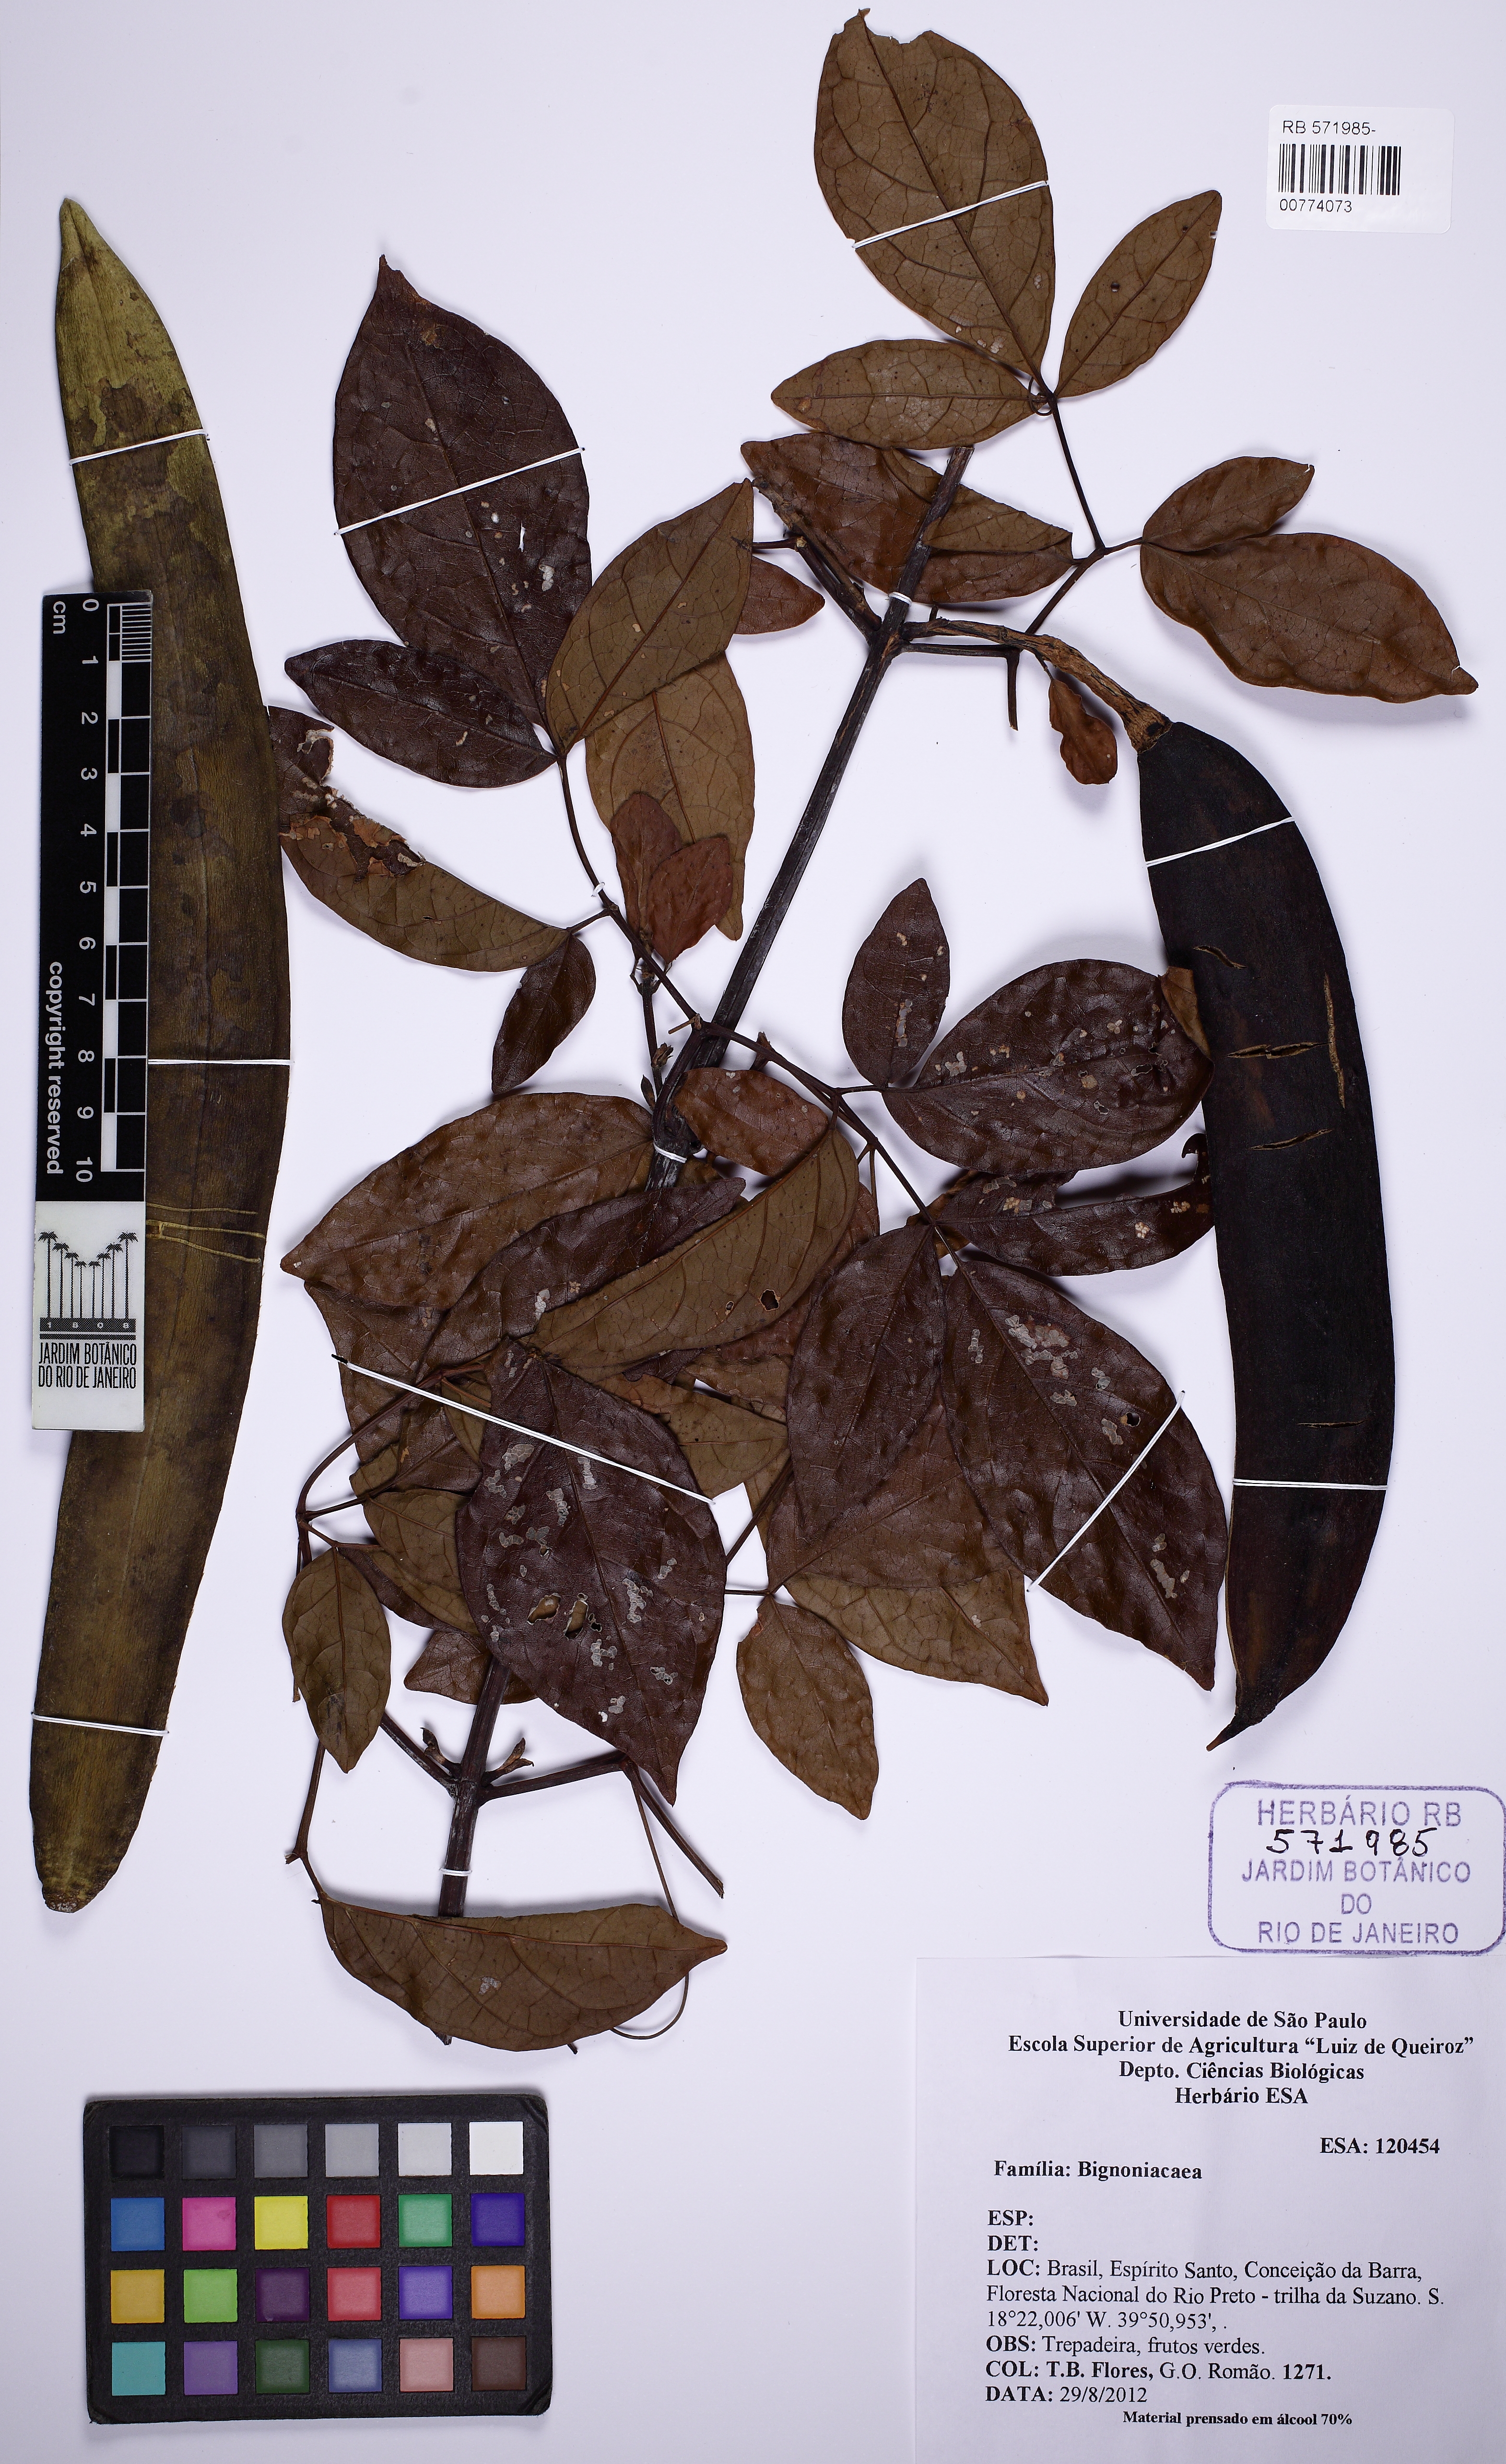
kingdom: Plantae
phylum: Tracheophyta
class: Magnoliopsida
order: Lamiales
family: Bignoniaceae
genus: Pleonotoma
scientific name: Pleonotoma stichadenia
